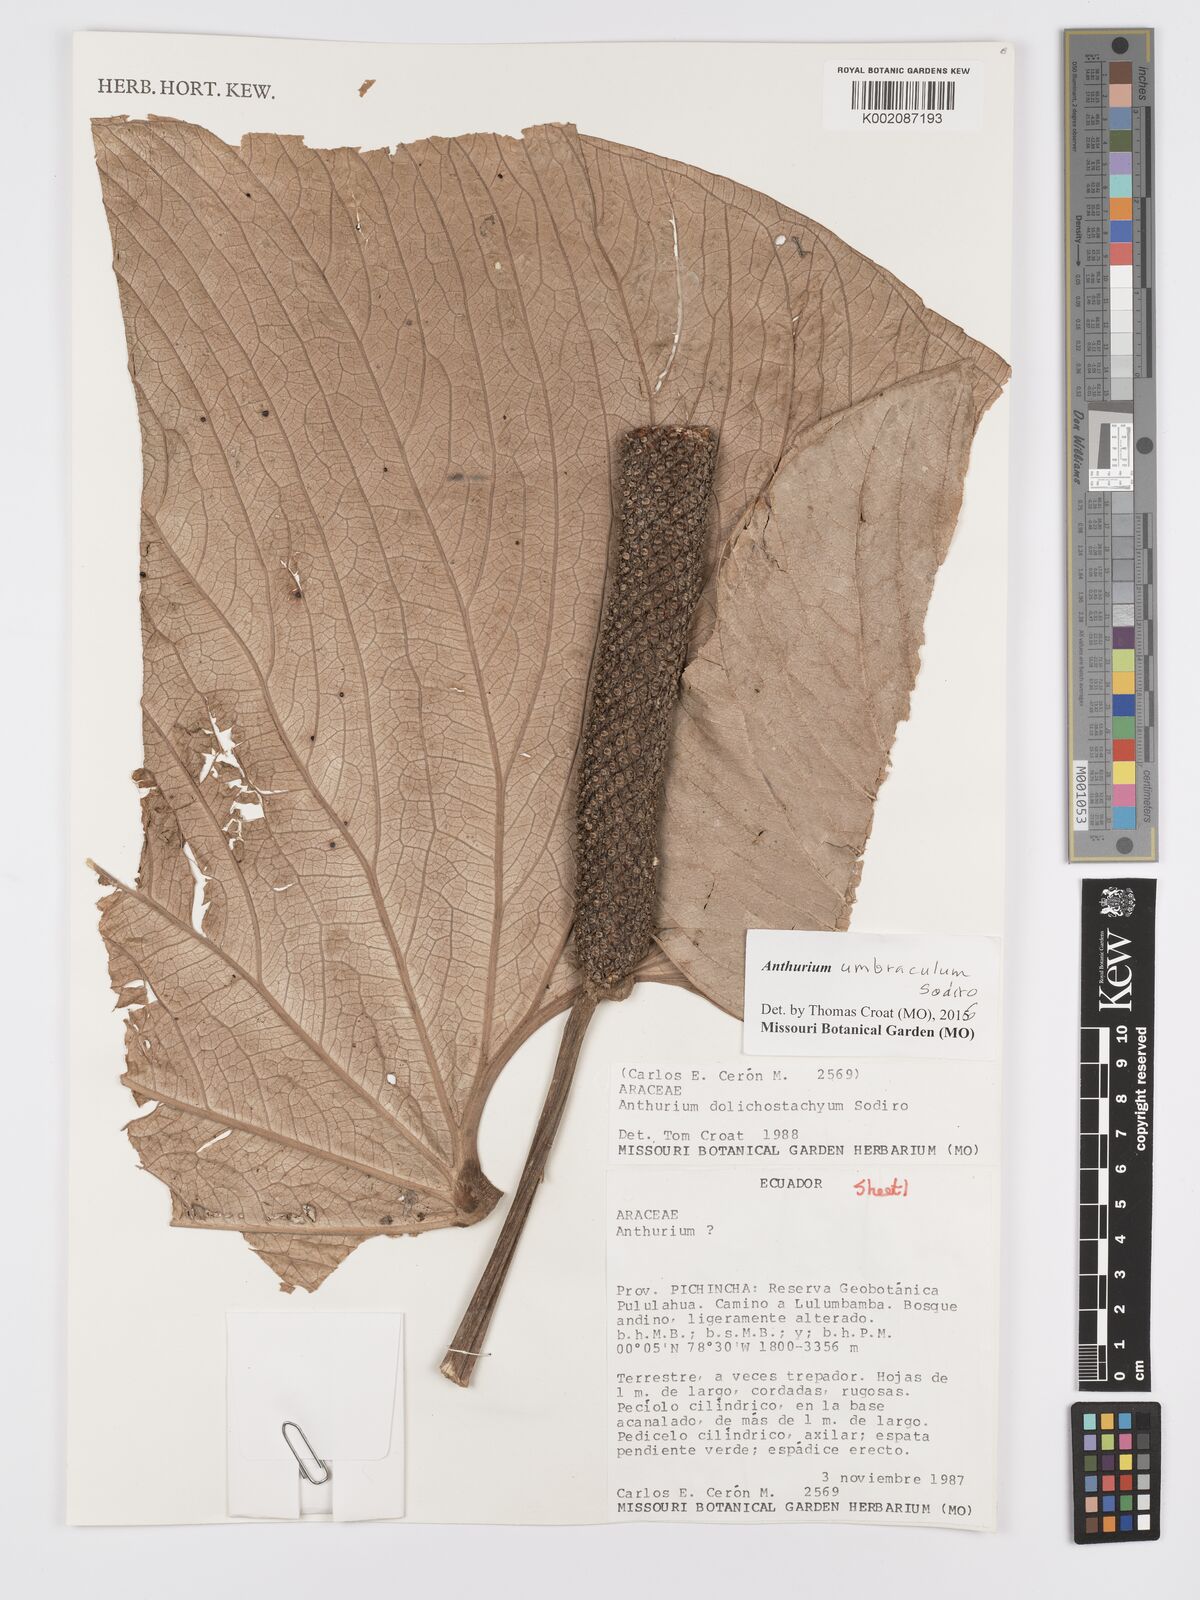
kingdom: Plantae
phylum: Tracheophyta
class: Liliopsida
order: Alismatales
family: Araceae
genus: Anthurium
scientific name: Anthurium umbraculum
